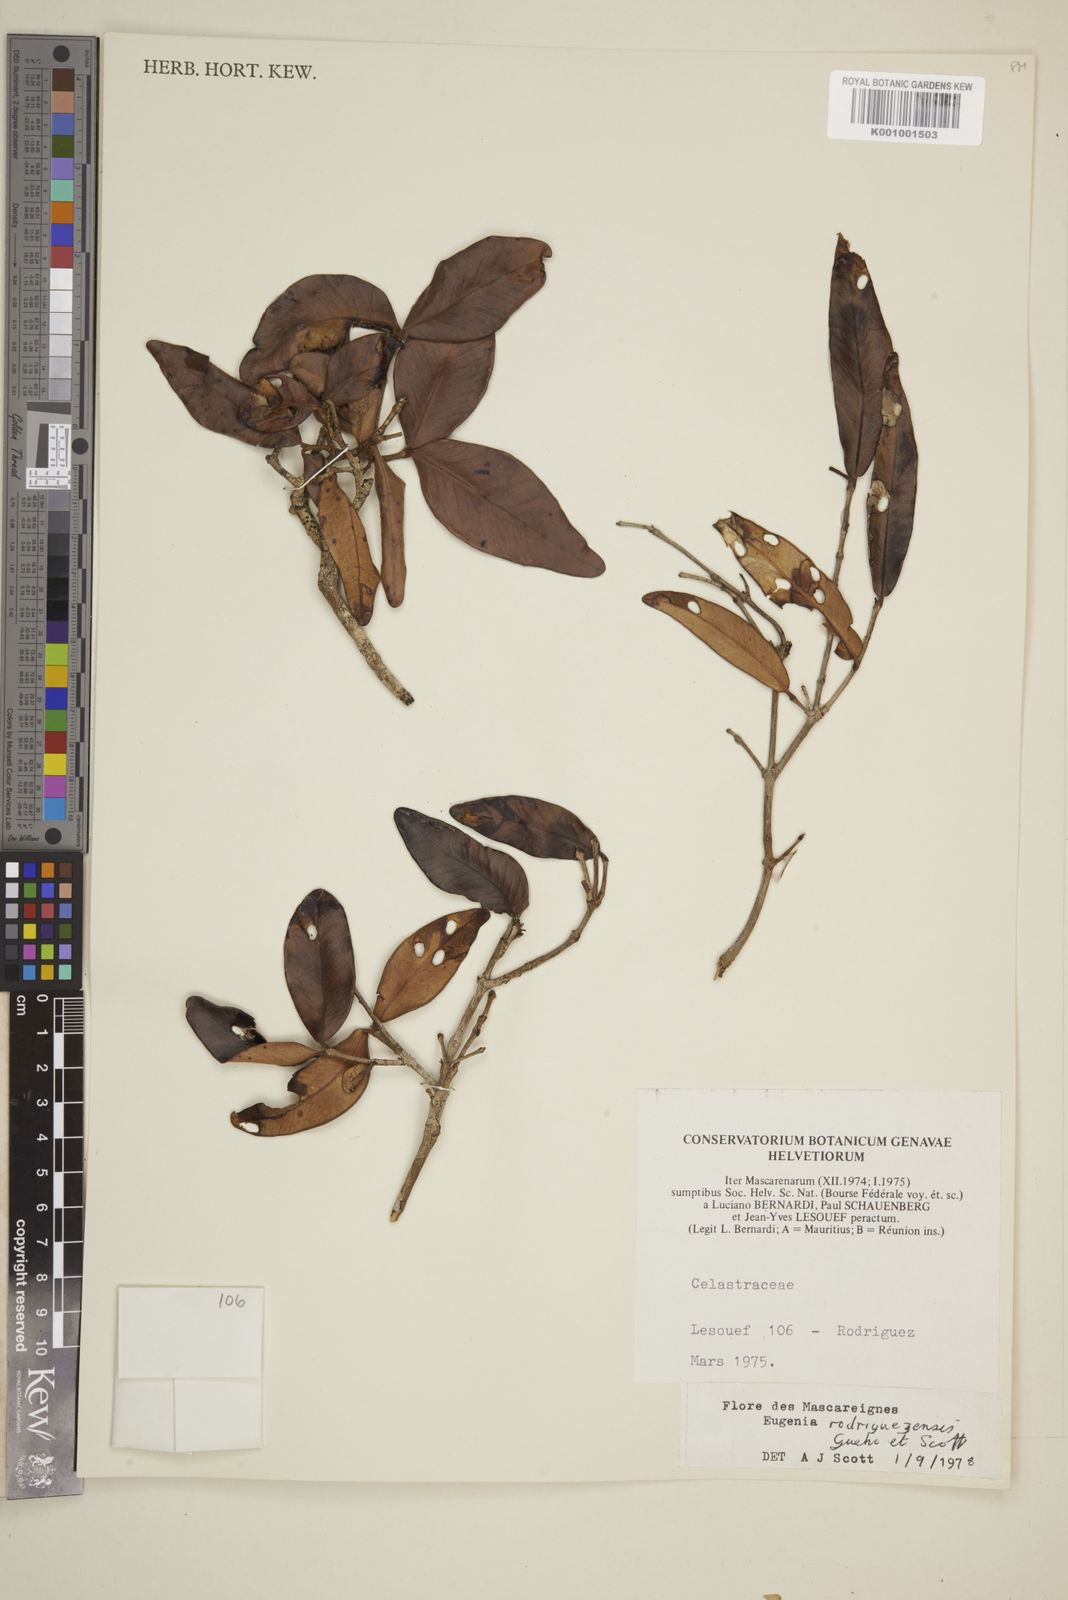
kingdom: Plantae
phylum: Tracheophyta
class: Magnoliopsida
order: Myrtales
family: Myrtaceae
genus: Eugenia
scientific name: Eugenia
